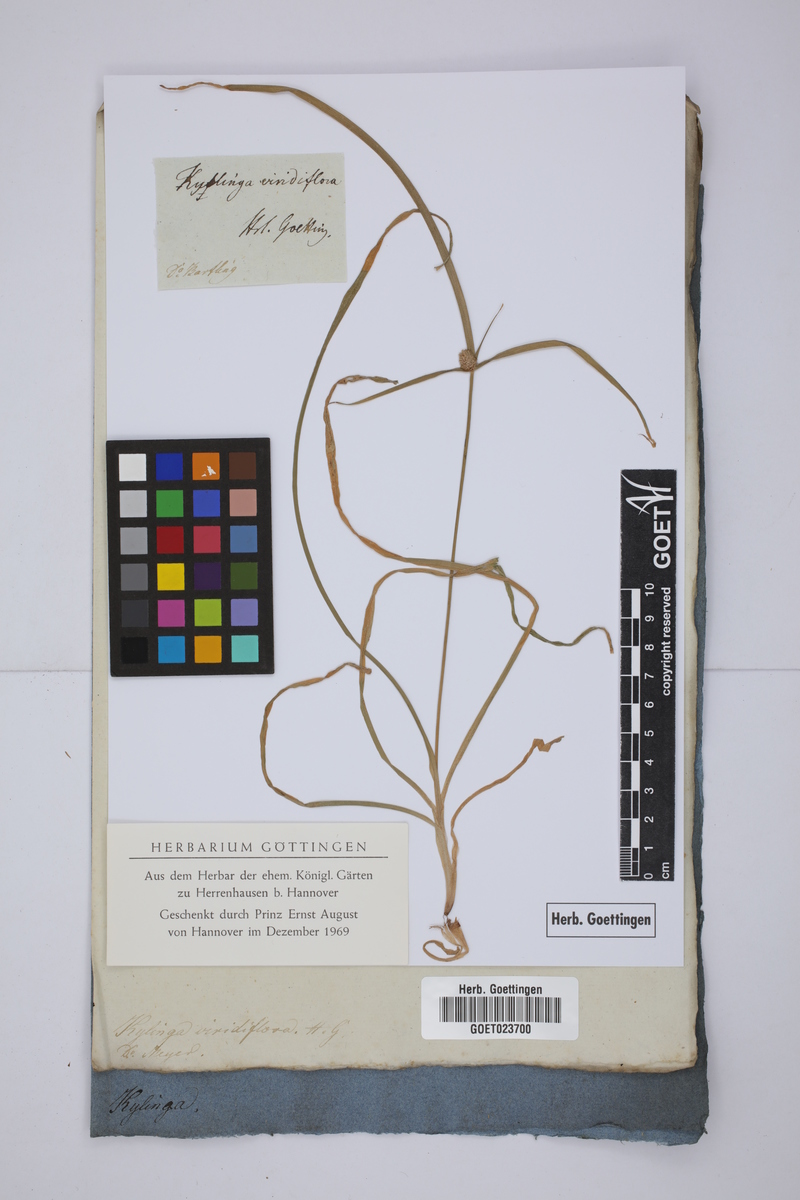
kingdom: Plantae
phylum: Tracheophyta
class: Liliopsida
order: Poales
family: Cyperaceae
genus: Cyperus
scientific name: Cyperus hortensis
